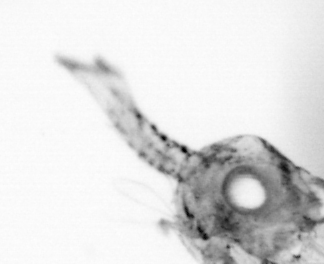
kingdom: Animalia
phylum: Arthropoda
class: Copepoda
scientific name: Copepoda
